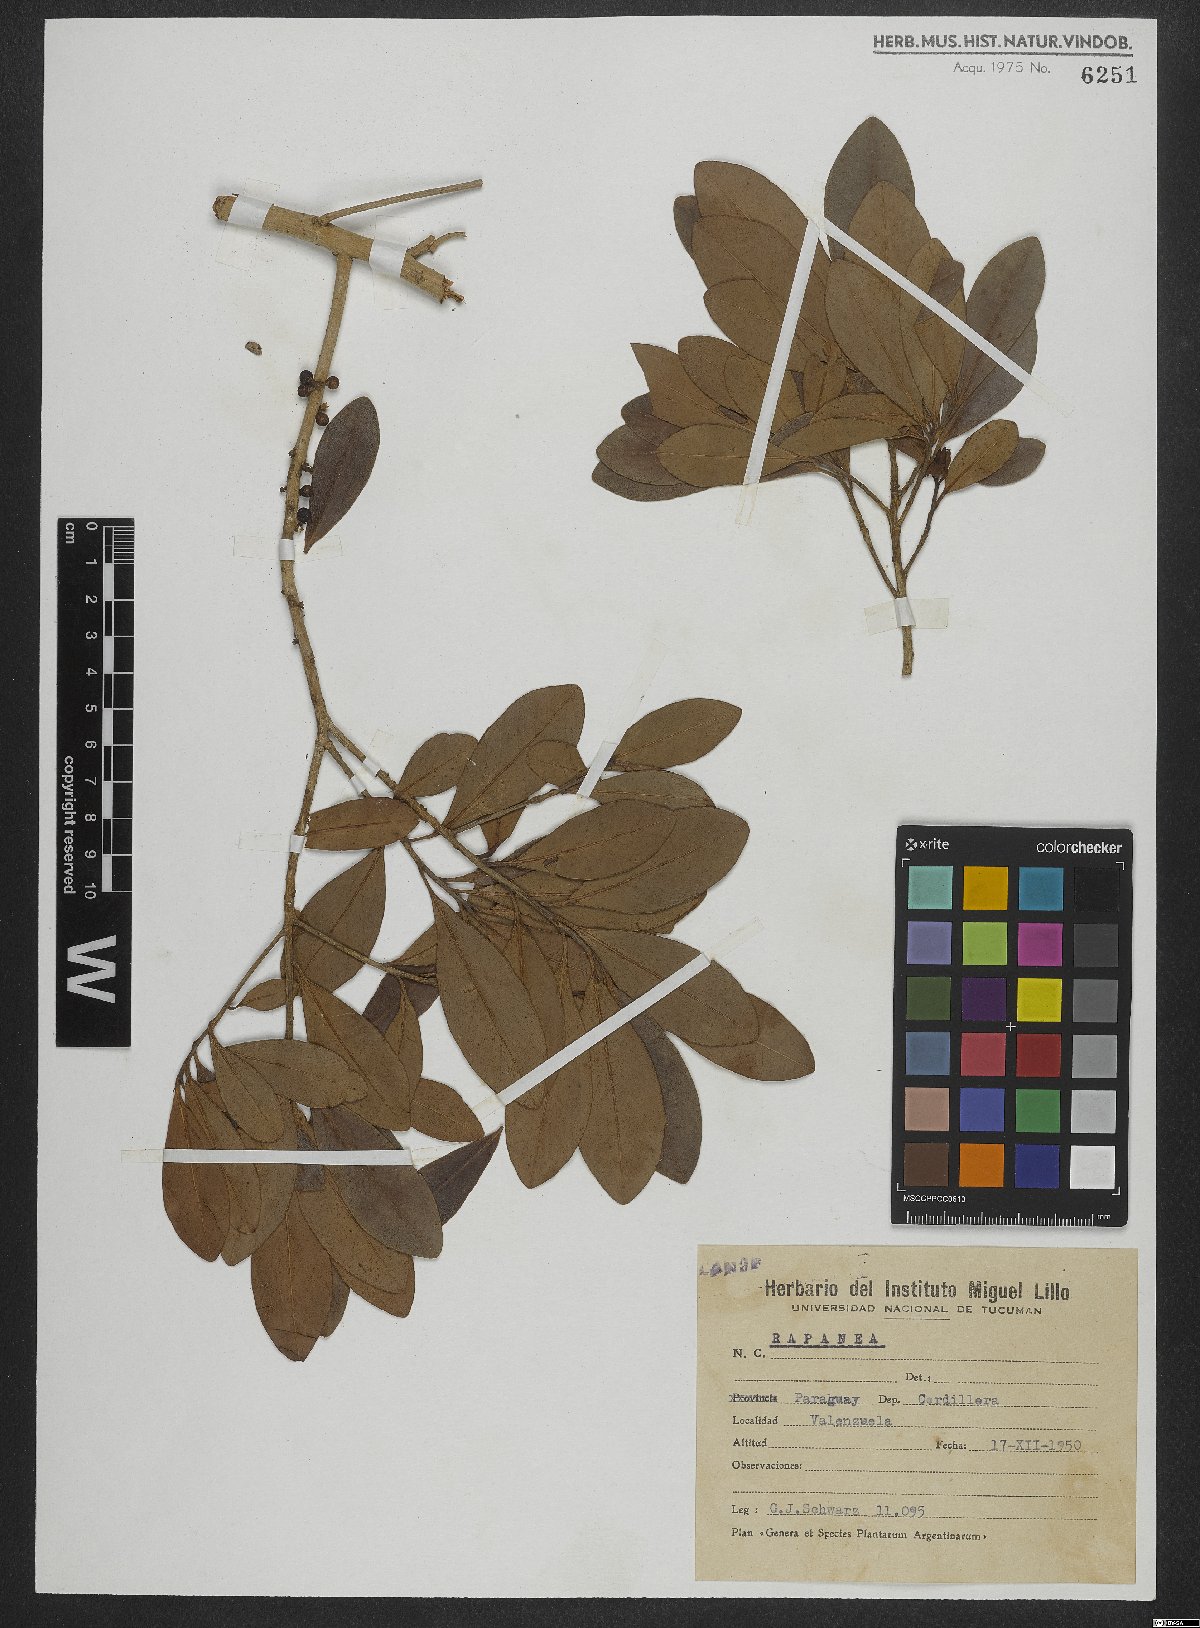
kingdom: Plantae
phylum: Tracheophyta
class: Magnoliopsida
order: Ericales
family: Primulaceae
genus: Myrsine
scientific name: Myrsine
